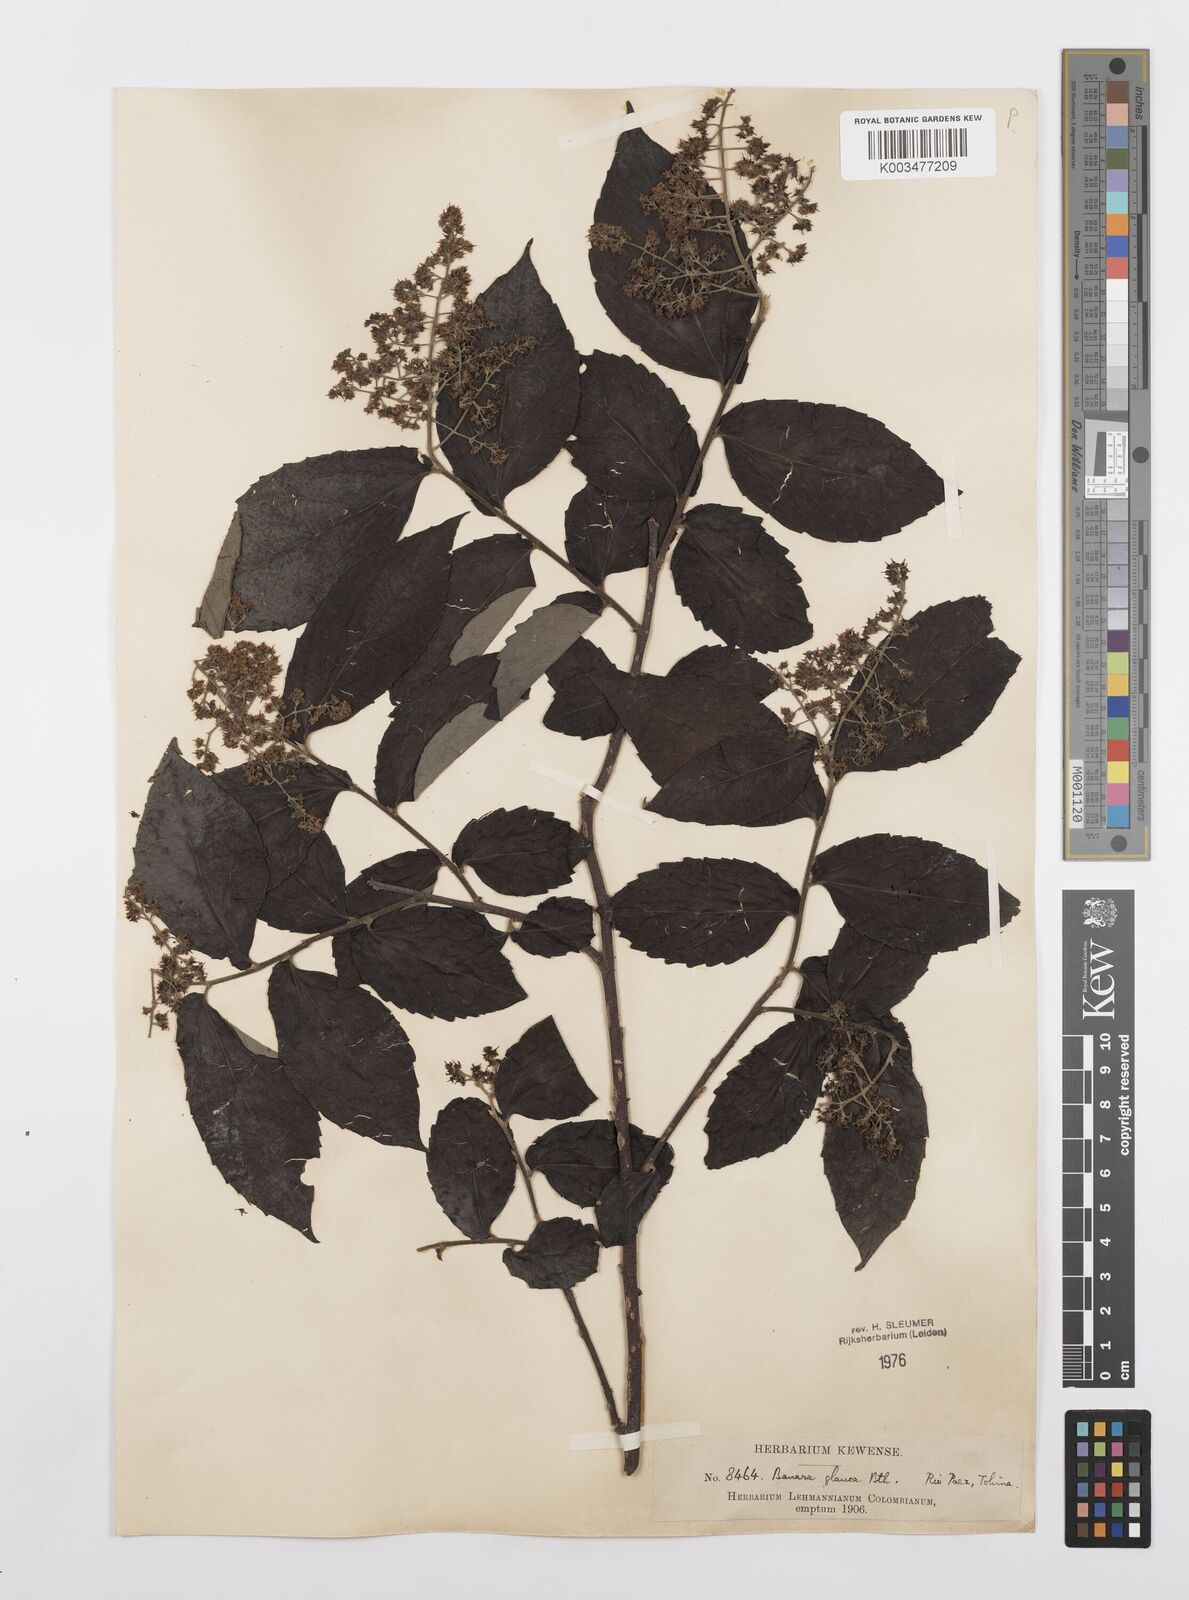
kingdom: Plantae
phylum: Tracheophyta
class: Magnoliopsida
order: Malpighiales
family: Salicaceae
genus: Banara
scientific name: Banara glauca
